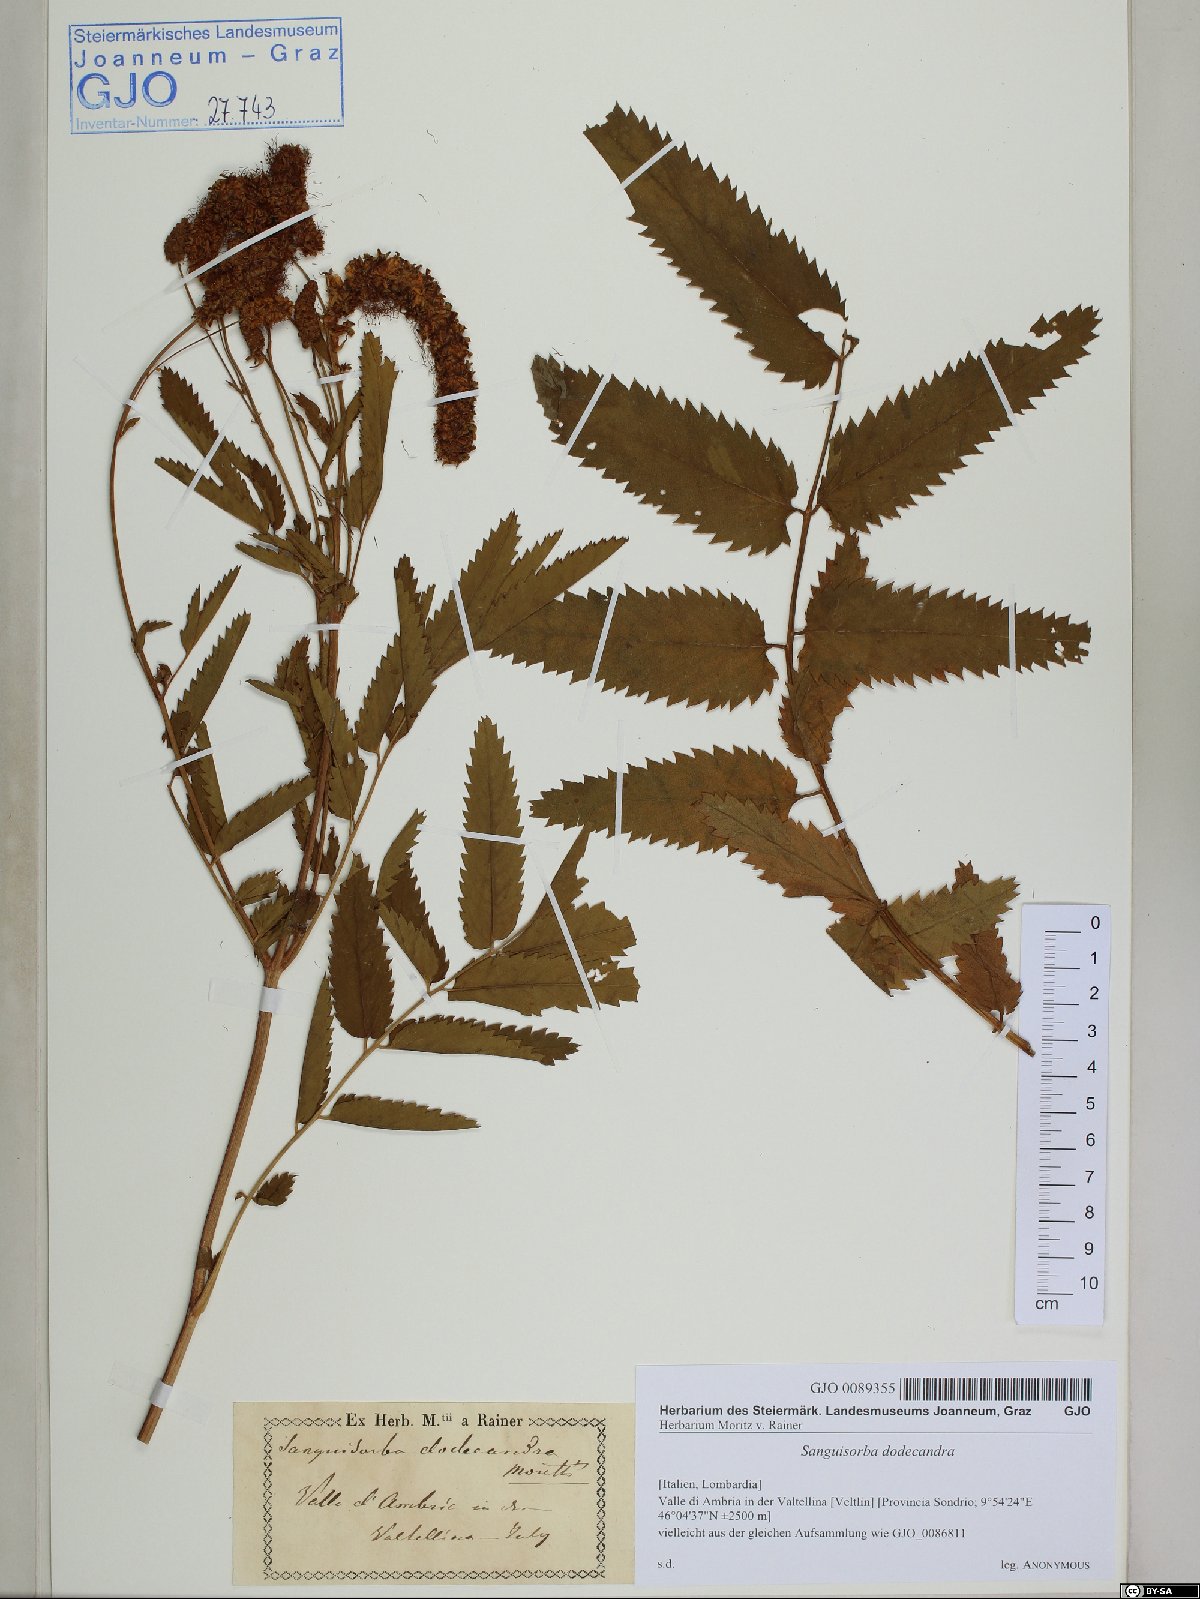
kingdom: Plantae
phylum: Tracheophyta
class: Magnoliopsida
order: Rosales
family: Rosaceae
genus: Poterium
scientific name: Poterium dodecandrum
